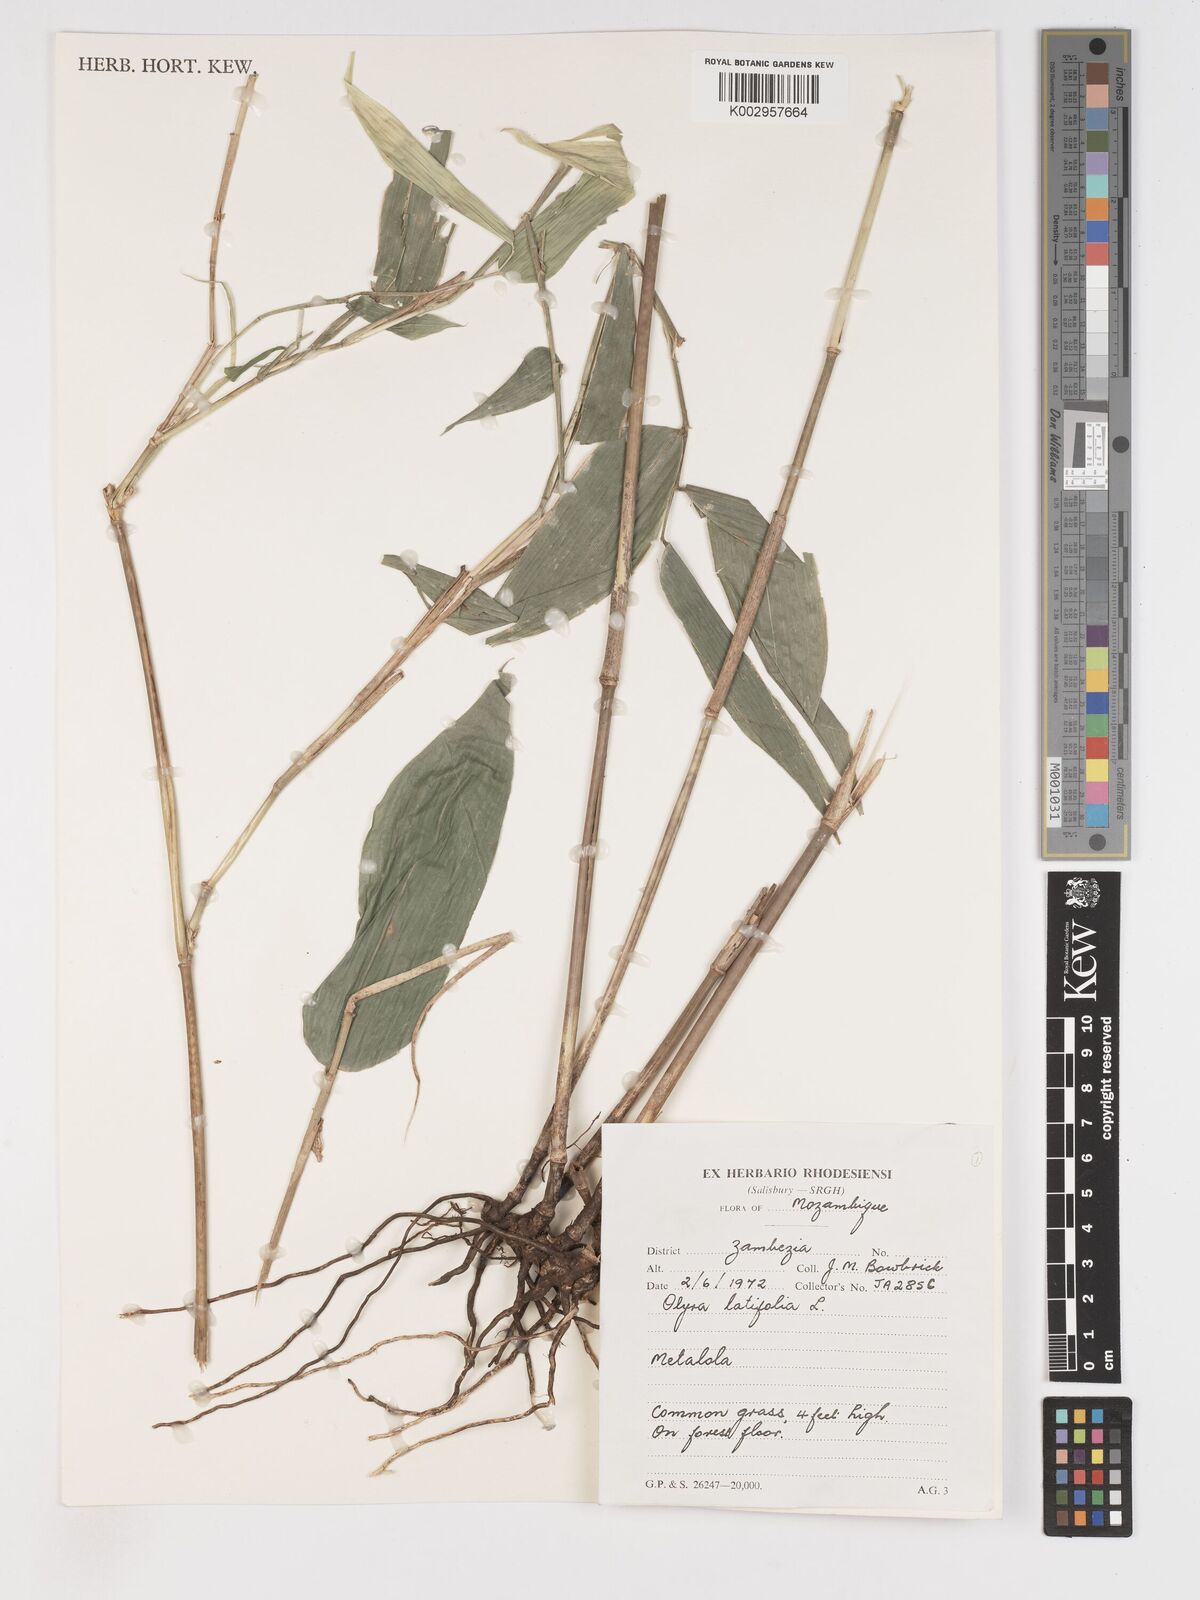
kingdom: Plantae
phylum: Tracheophyta
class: Liliopsida
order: Poales
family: Poaceae
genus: Olyra
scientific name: Olyra latifolia
